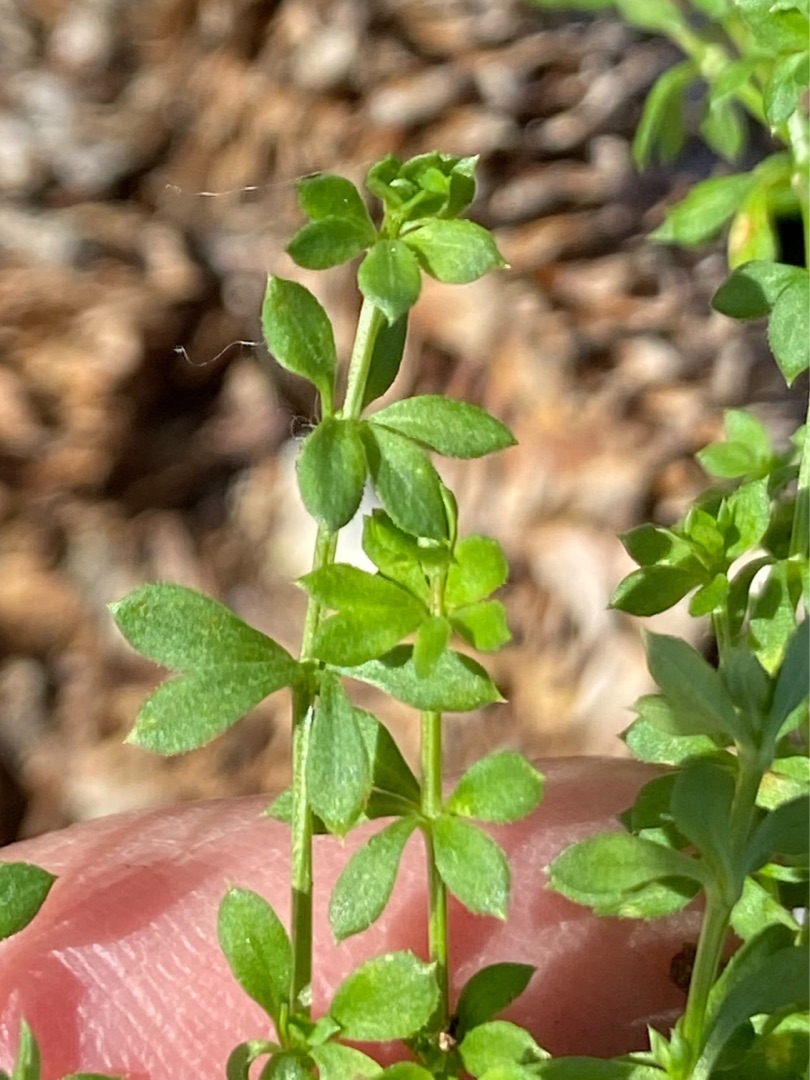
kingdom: Plantae
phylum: Tracheophyta
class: Magnoliopsida
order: Gentianales
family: Rubiaceae
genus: Galium
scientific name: Galium saxatile
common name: Lyng-snerre
